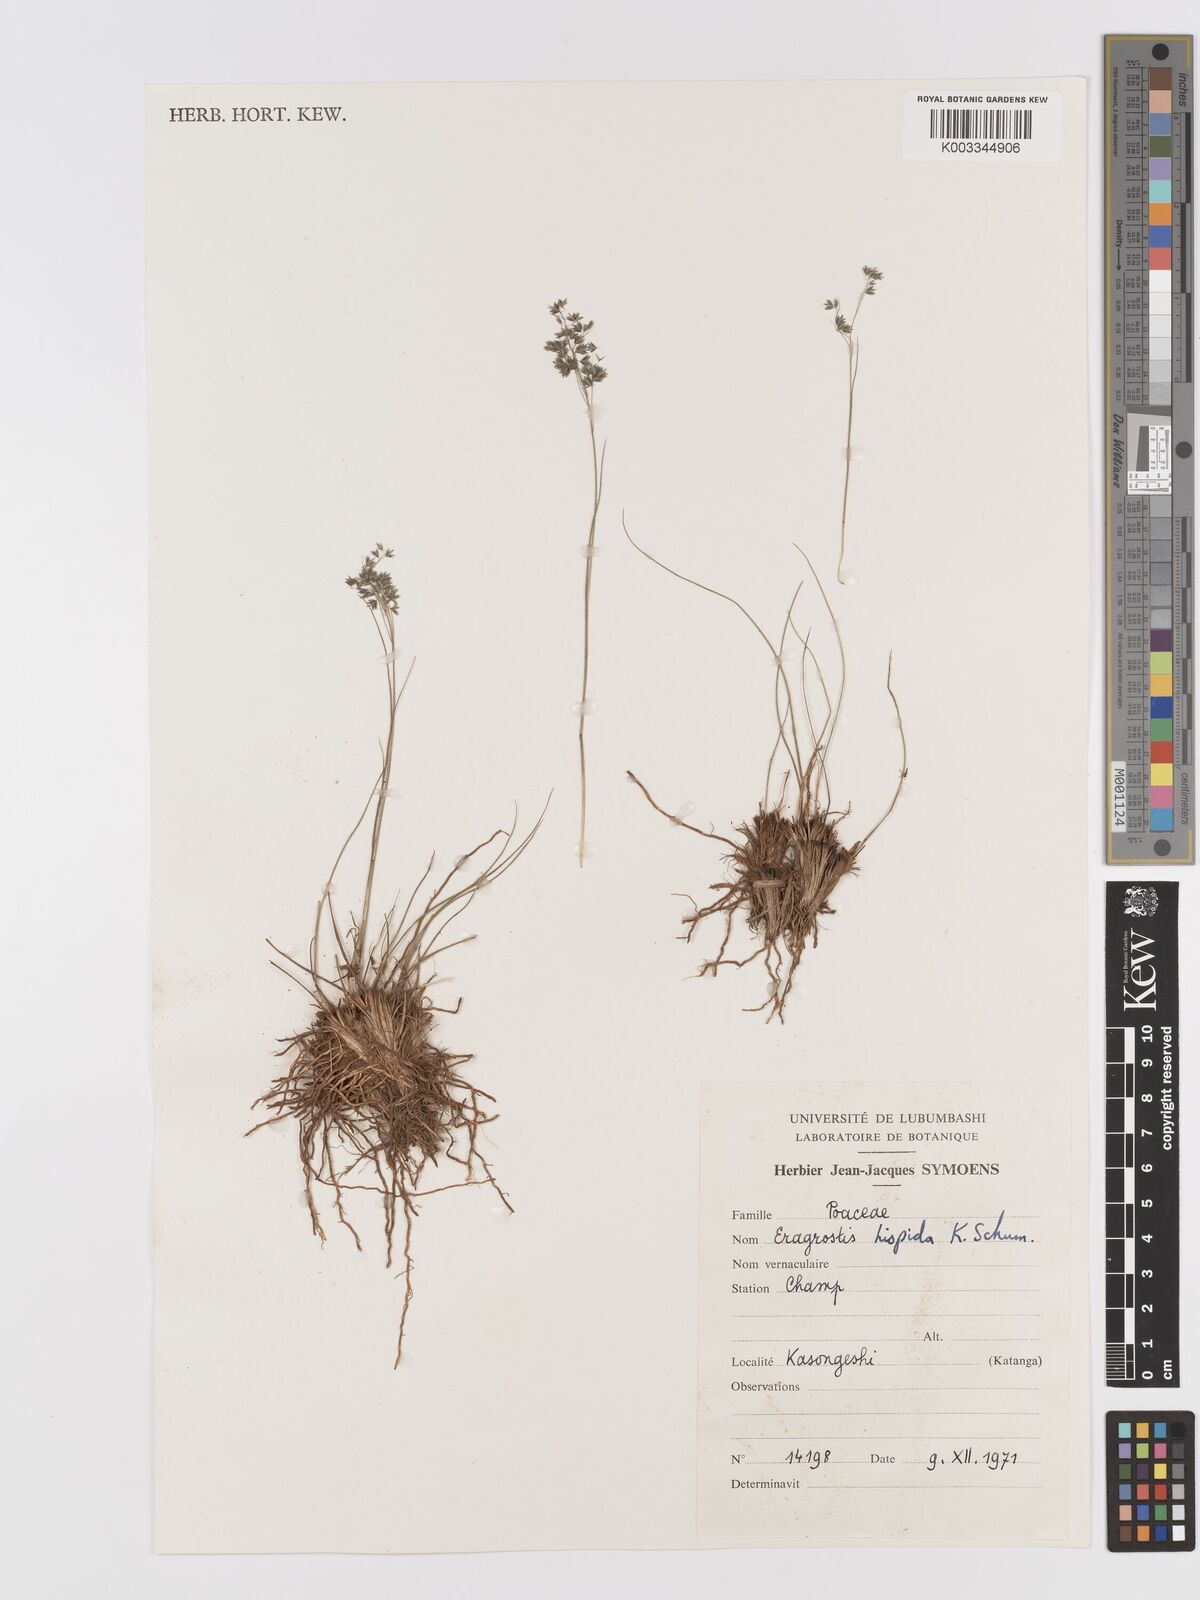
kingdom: Plantae
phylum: Tracheophyta
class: Liliopsida
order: Poales
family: Poaceae
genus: Eragrostis
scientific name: Eragrostis hispida
